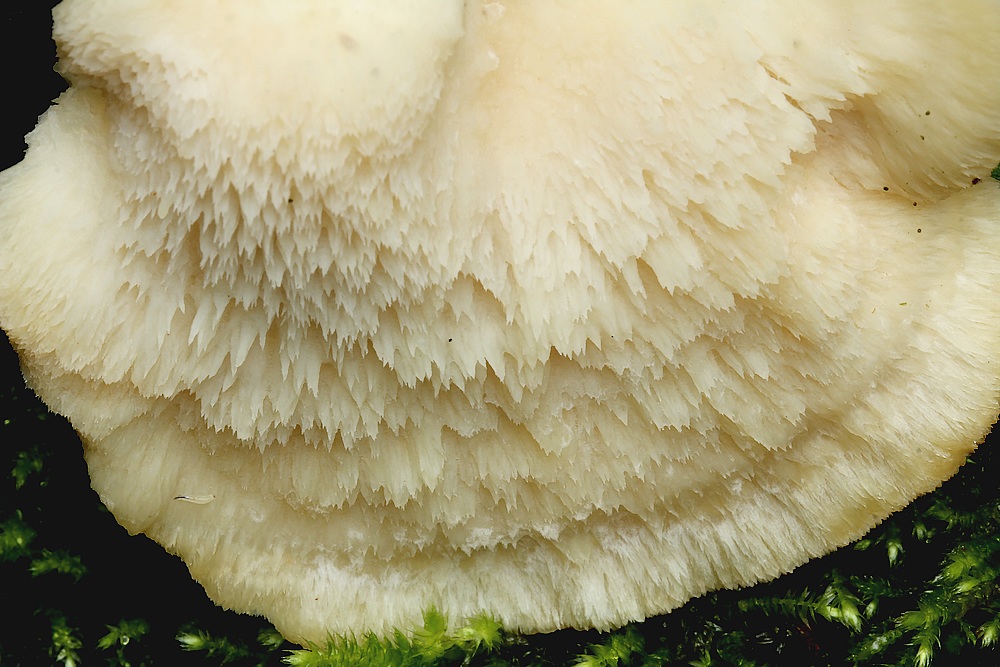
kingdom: Fungi
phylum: Basidiomycota
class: Agaricomycetes
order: Polyporales
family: Fomitopsidaceae
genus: Climacocystis
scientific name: Climacocystis borealis
